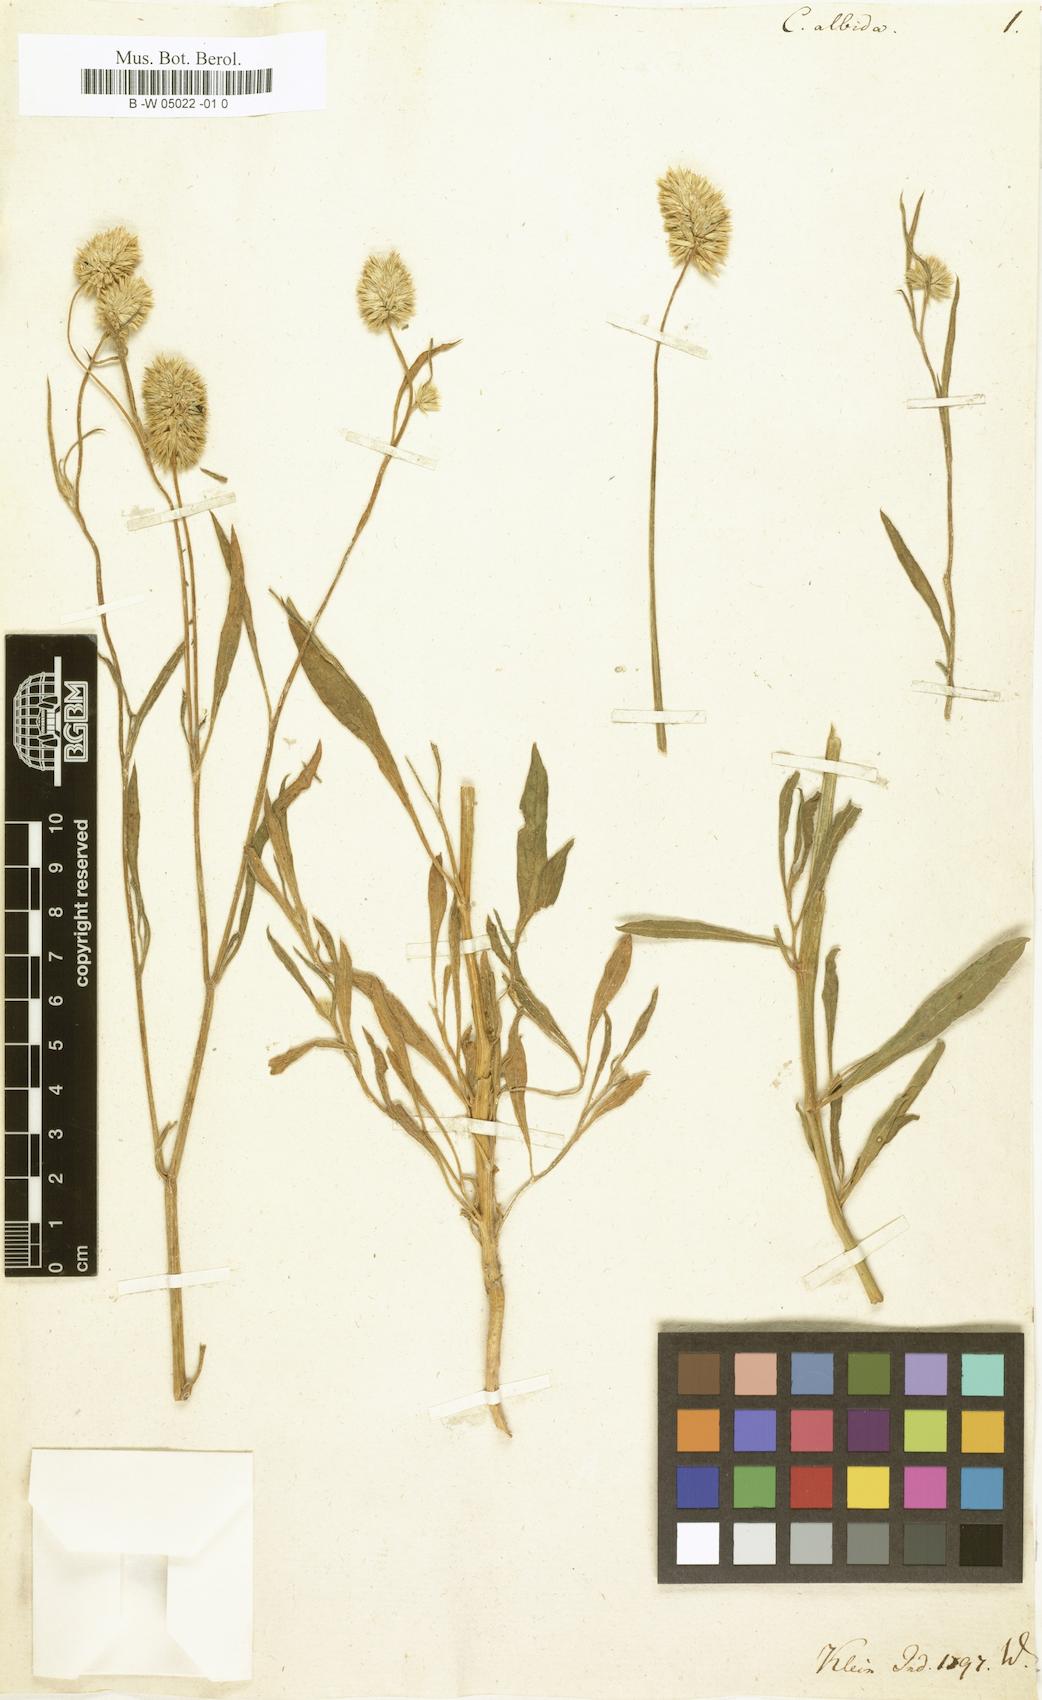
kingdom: Plantae
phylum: Tracheophyta
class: Magnoliopsida
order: Caryophyllales
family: Amaranthaceae
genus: Allmania
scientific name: Allmania nodiflora
